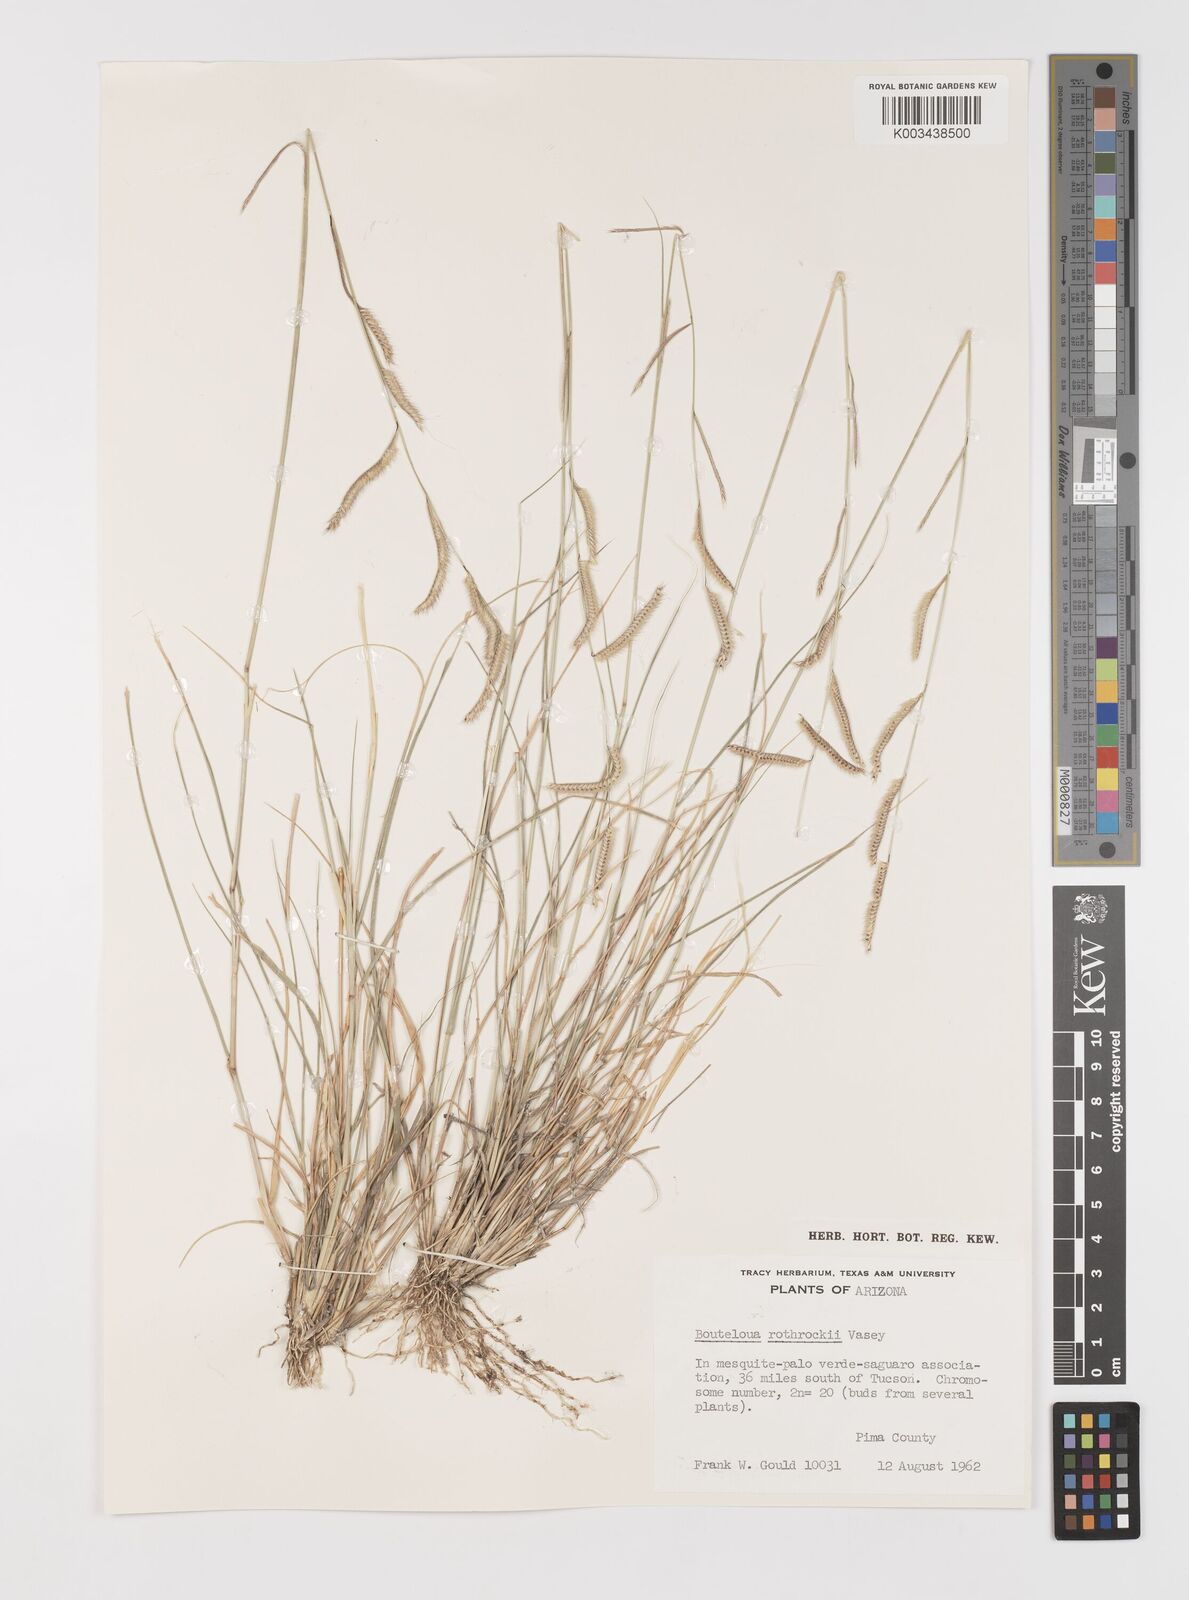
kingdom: Plantae
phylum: Tracheophyta
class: Liliopsida
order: Poales
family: Poaceae
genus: Bouteloua
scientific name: Bouteloua
